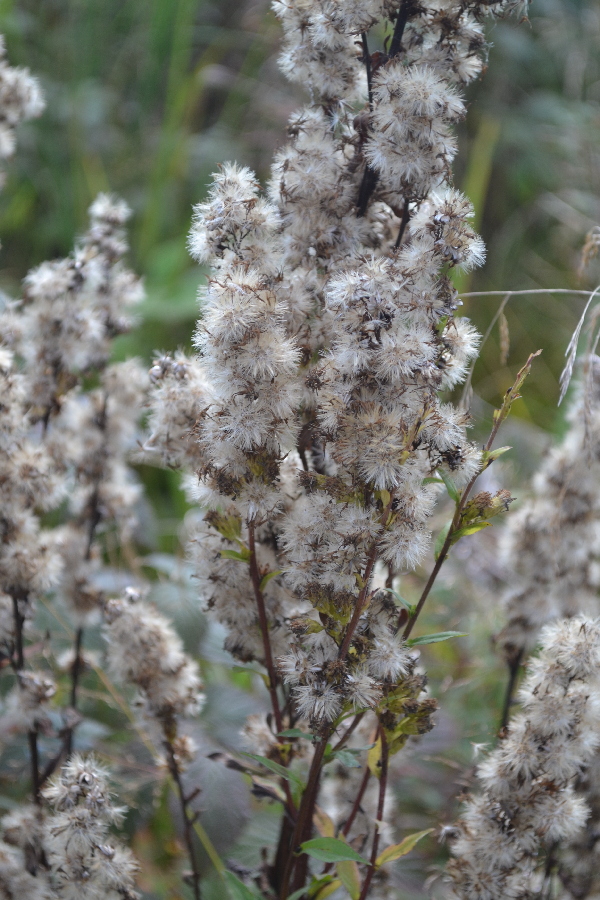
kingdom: Plantae
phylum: Tracheophyta
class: Magnoliopsida
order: Asterales
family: Asteraceae
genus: Solidago
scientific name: Solidago virgaurea
